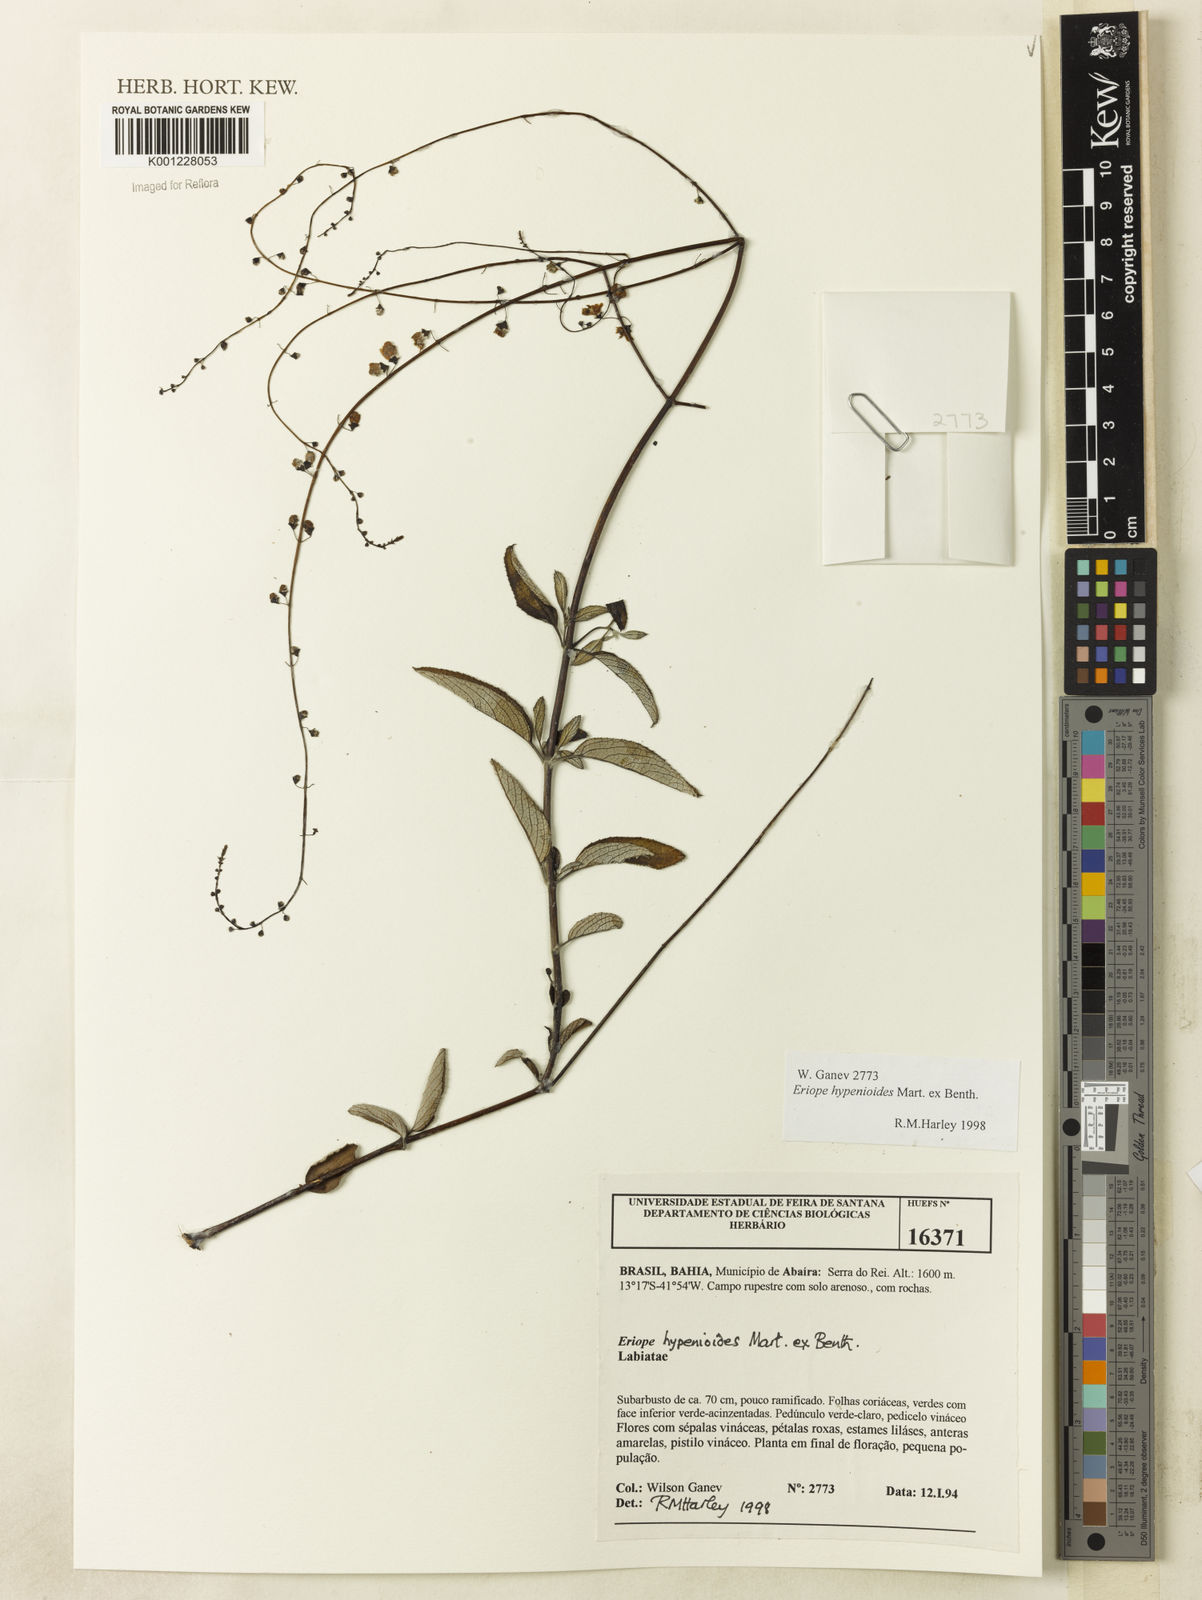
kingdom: Plantae
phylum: Tracheophyta
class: Magnoliopsida
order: Lamiales
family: Lamiaceae
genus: Eriope
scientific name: Eriope hypenioides
